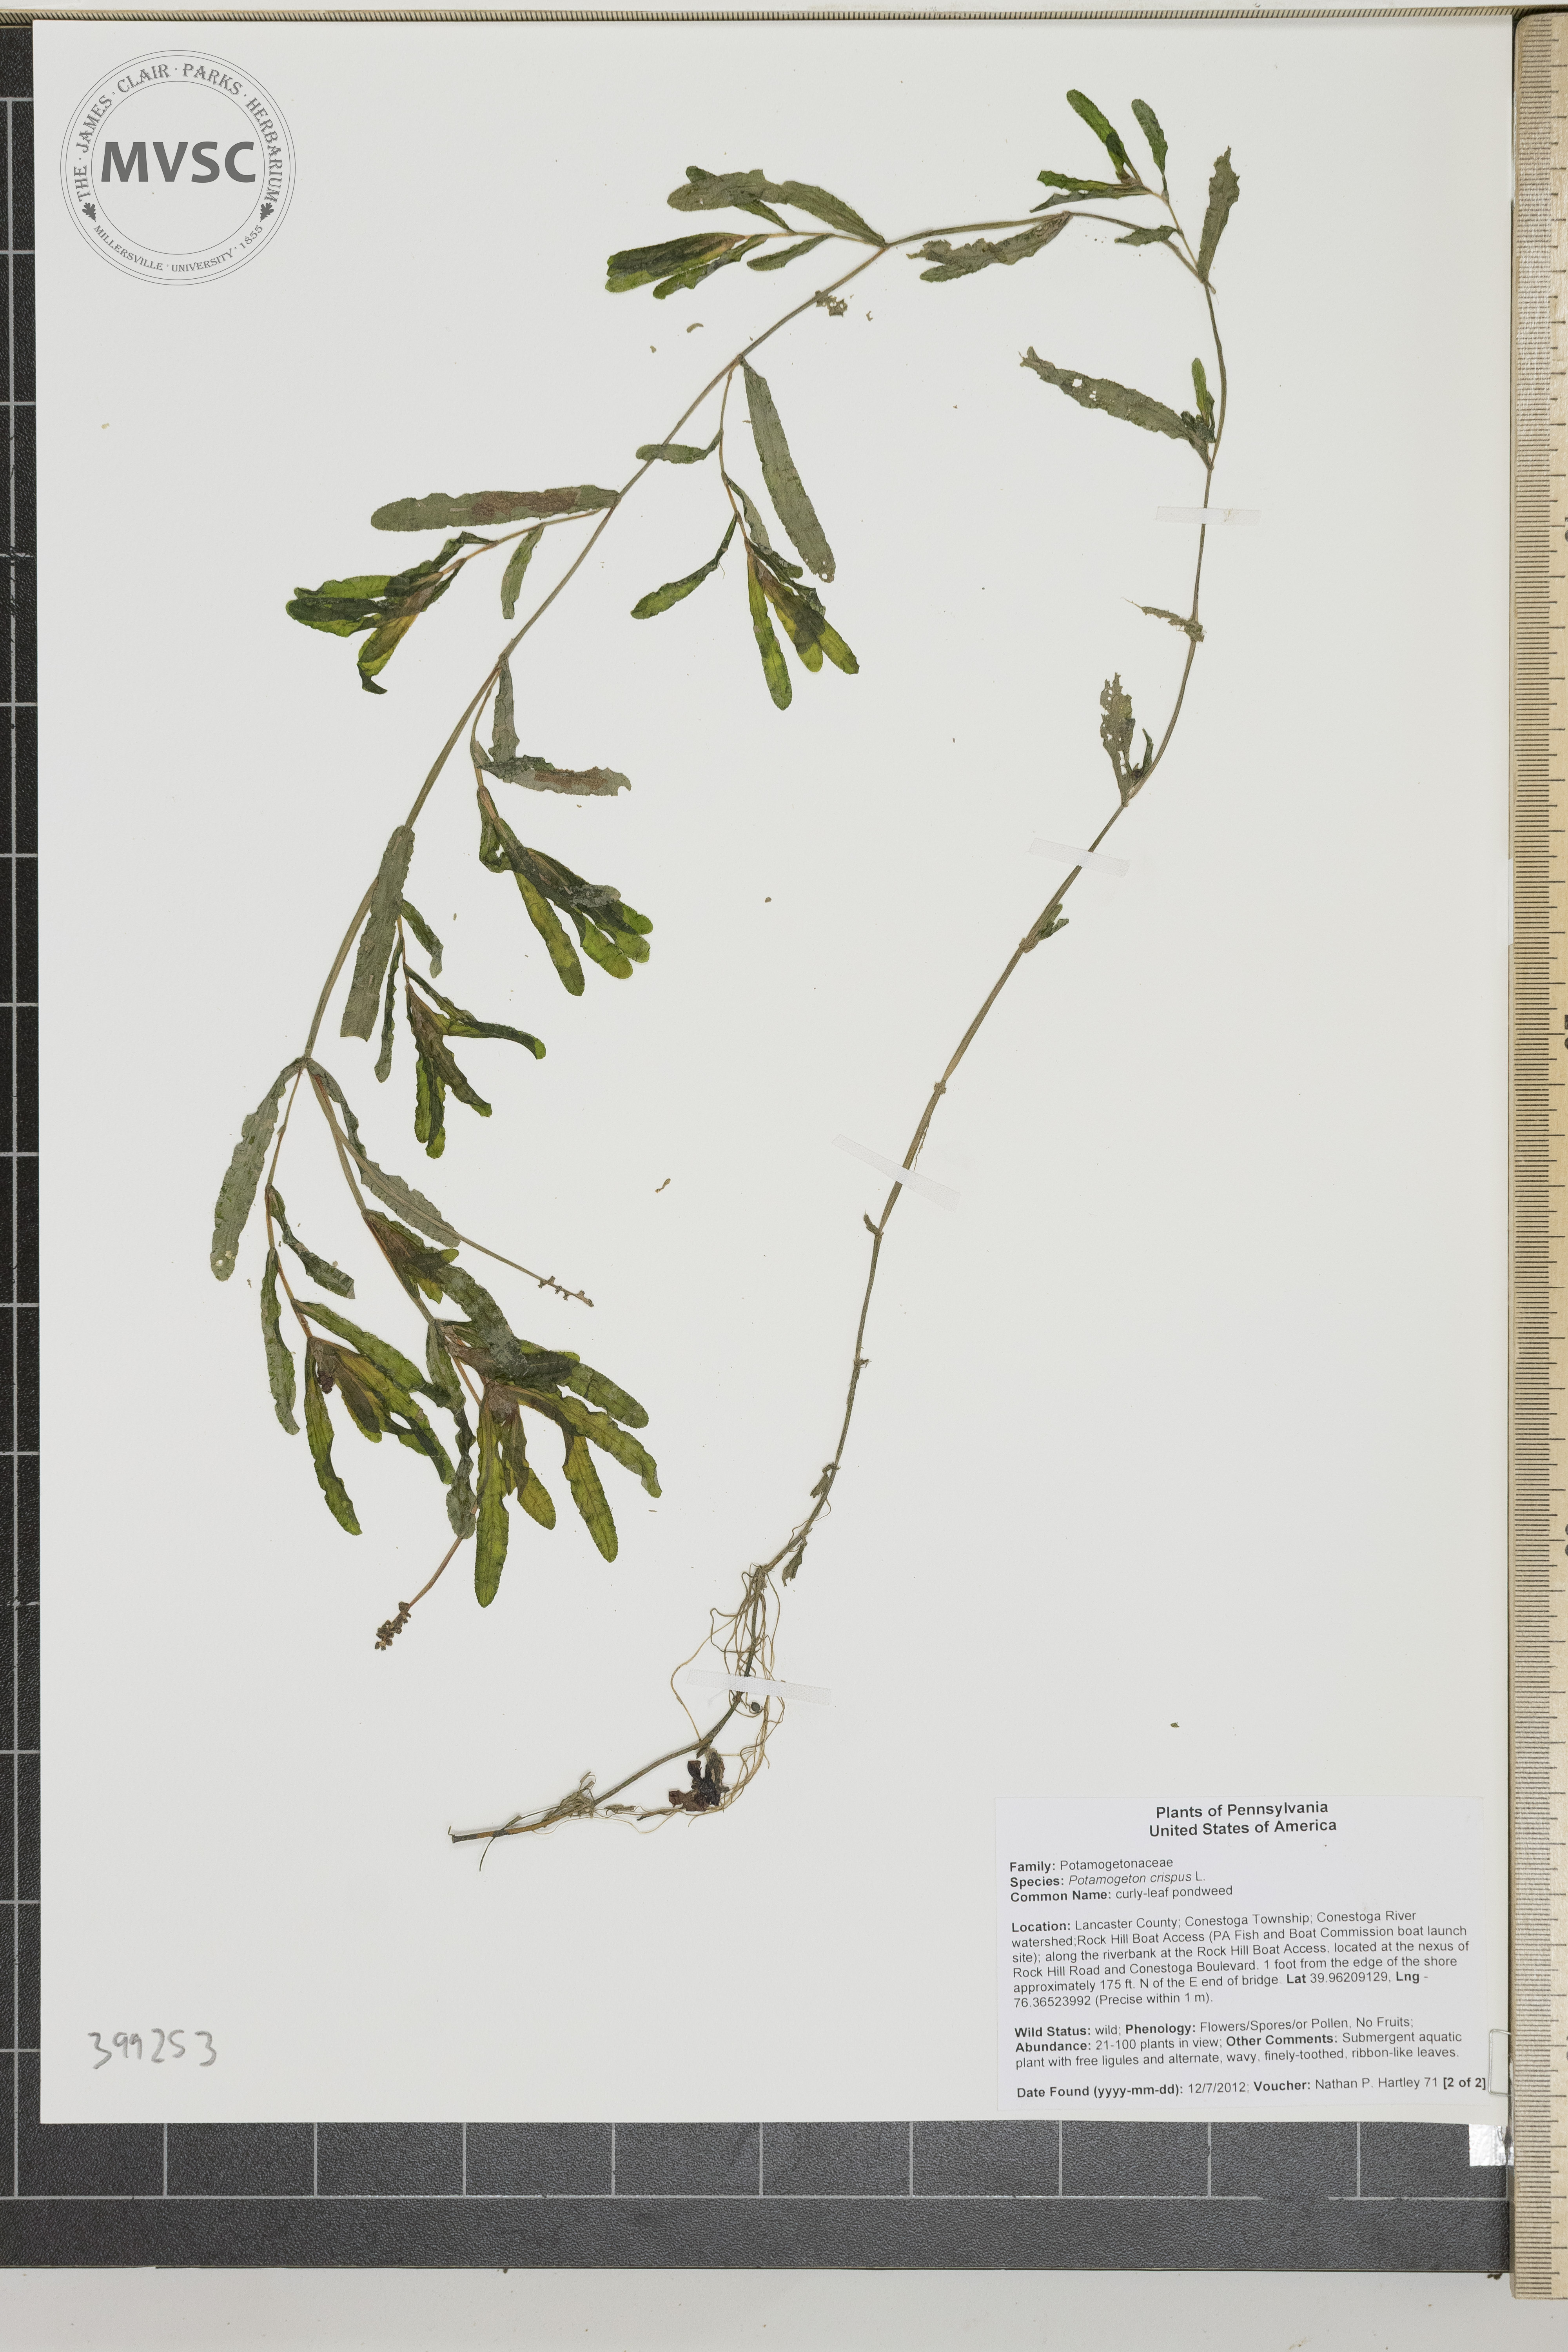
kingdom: Plantae
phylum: Tracheophyta
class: Liliopsida
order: Alismatales
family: Potamogetonaceae
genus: Potamogeton
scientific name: Potamogeton crispus
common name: Curly pondweed
